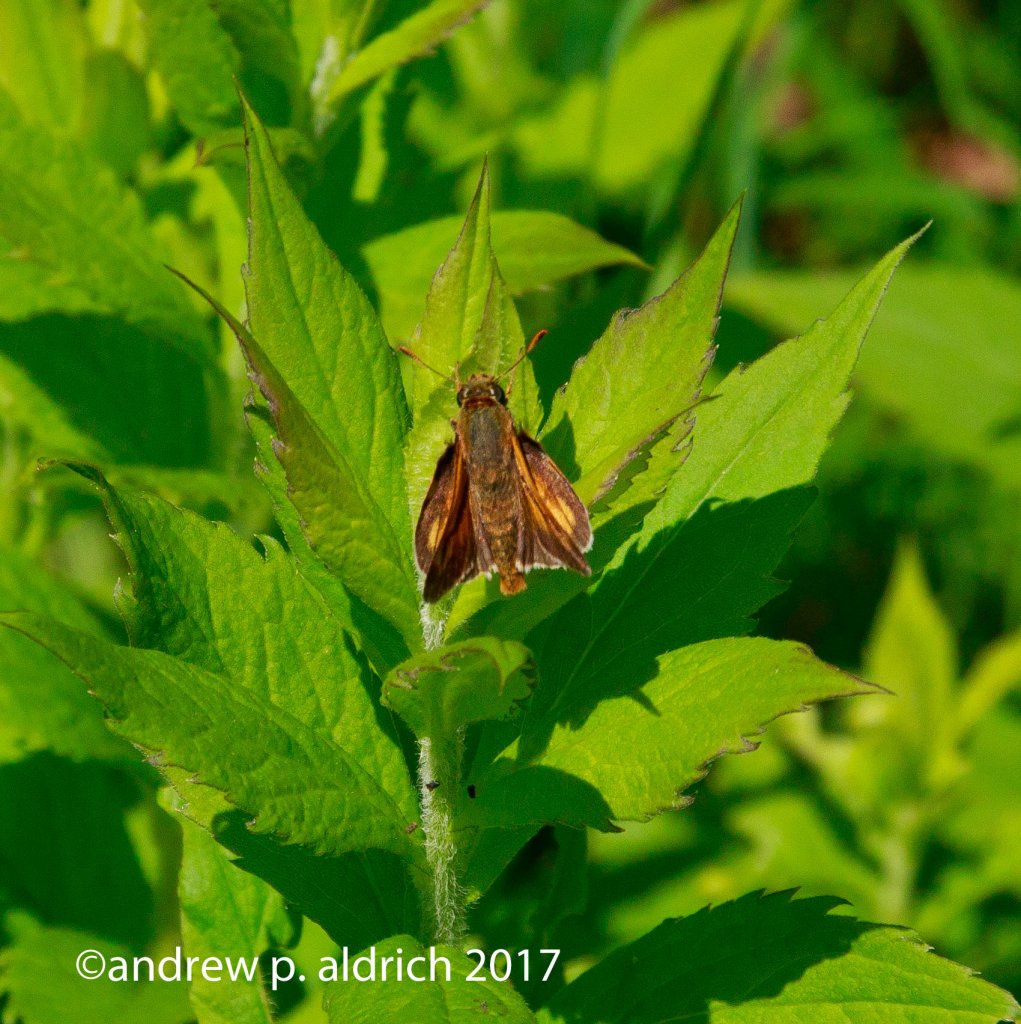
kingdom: Animalia
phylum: Arthropoda
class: Insecta
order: Lepidoptera
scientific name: Lepidoptera
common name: Butterflies
